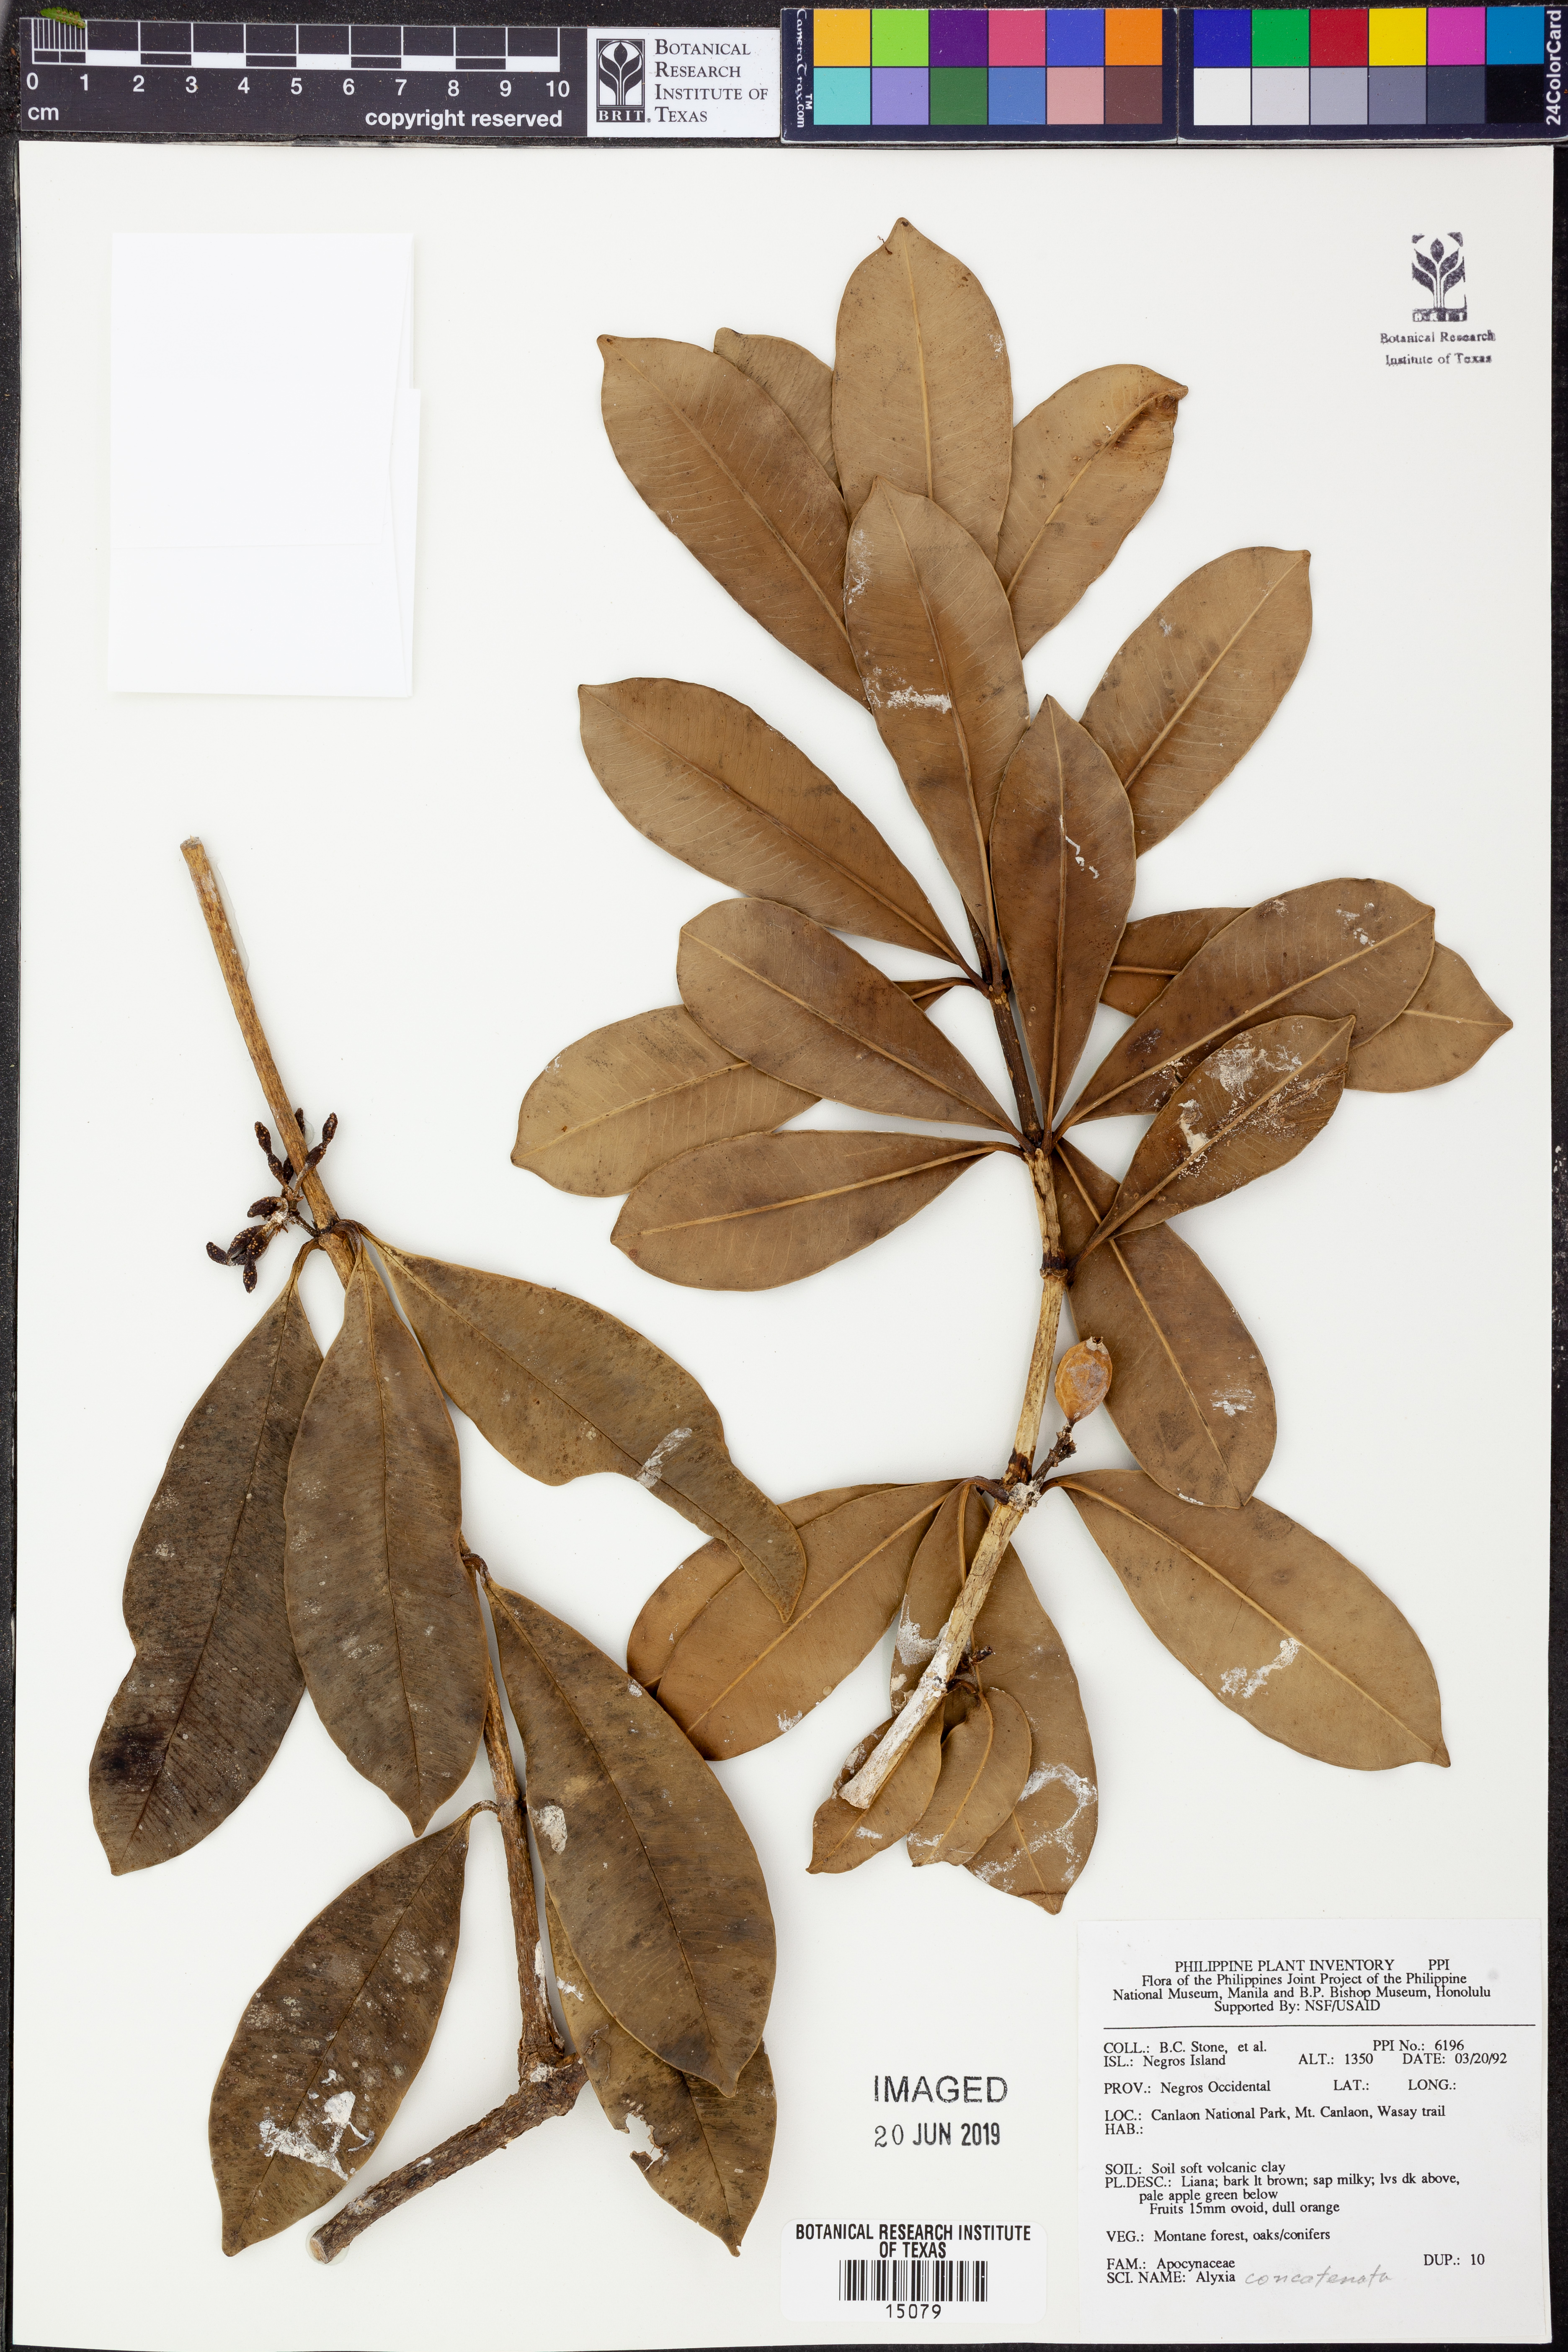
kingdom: Plantae
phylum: Tracheophyta
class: Magnoliopsida
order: Gentianales
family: Apocynaceae
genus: Alyxia
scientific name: Alyxia concatenata
